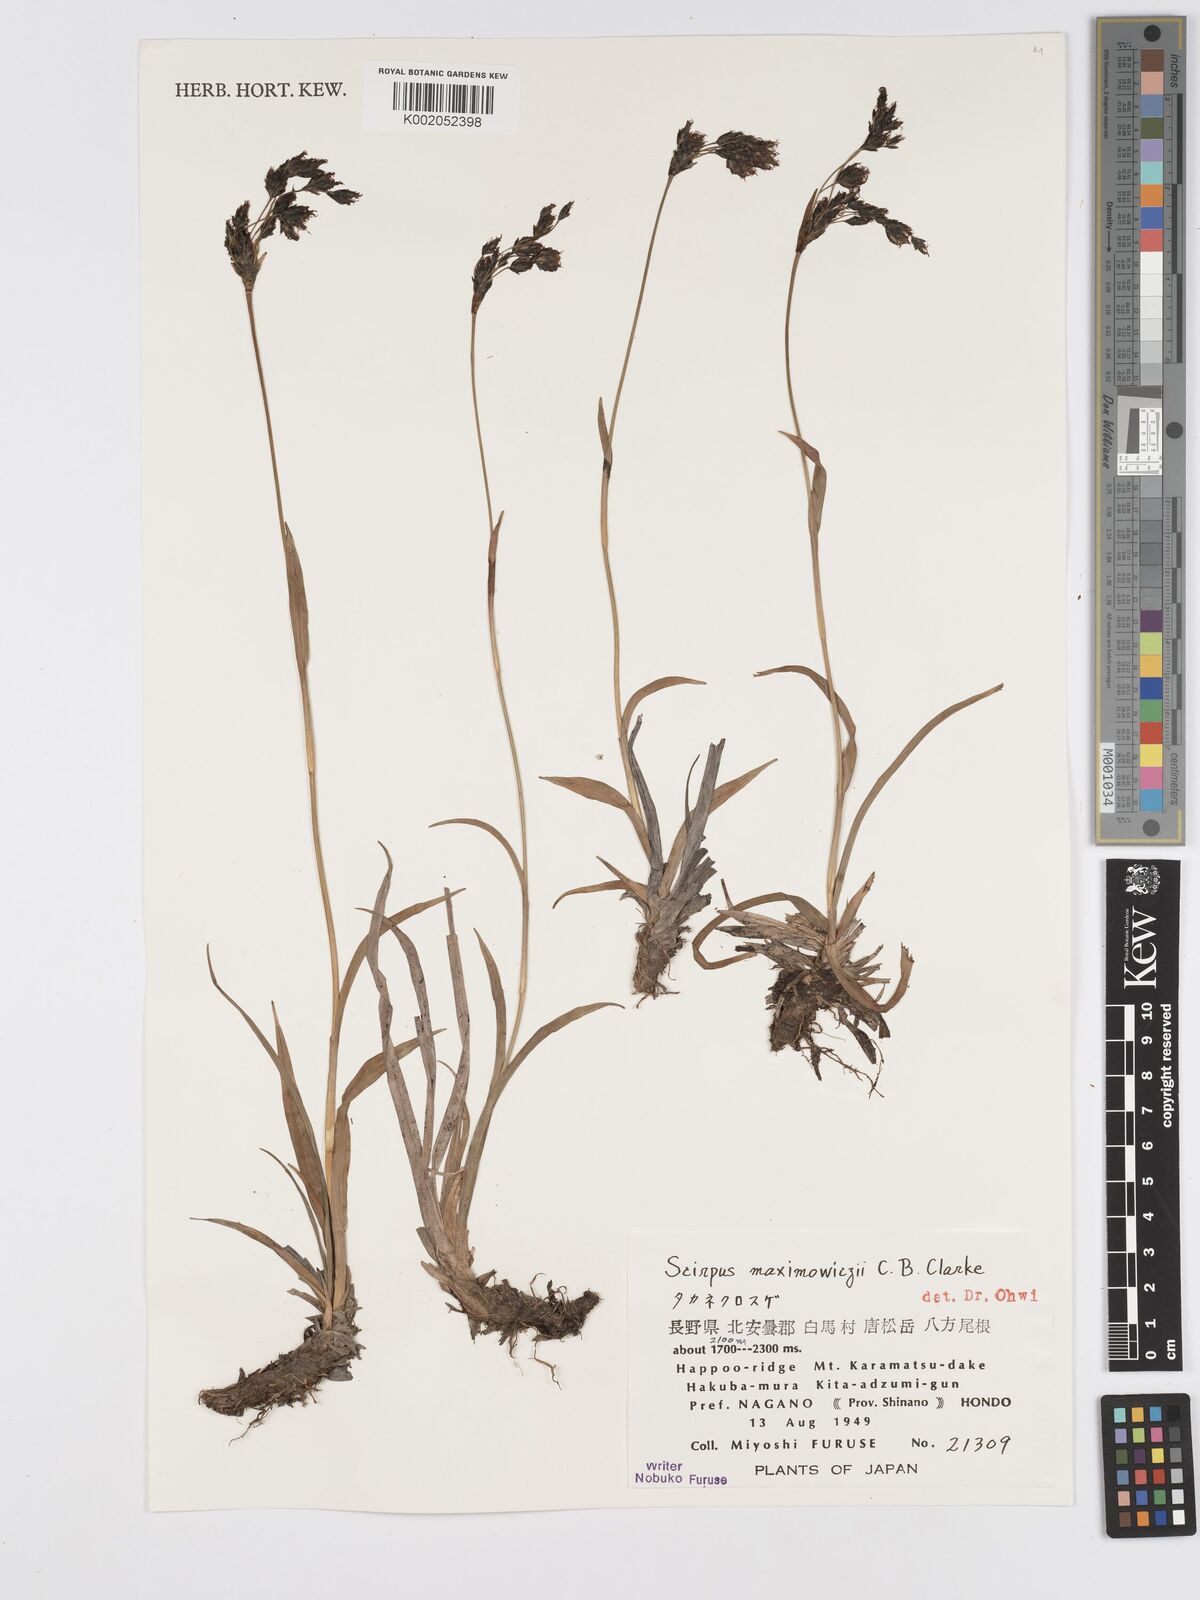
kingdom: Plantae
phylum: Tracheophyta
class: Liliopsida
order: Poales
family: Cyperaceae
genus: Scirpus
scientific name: Scirpus maximowiczii
